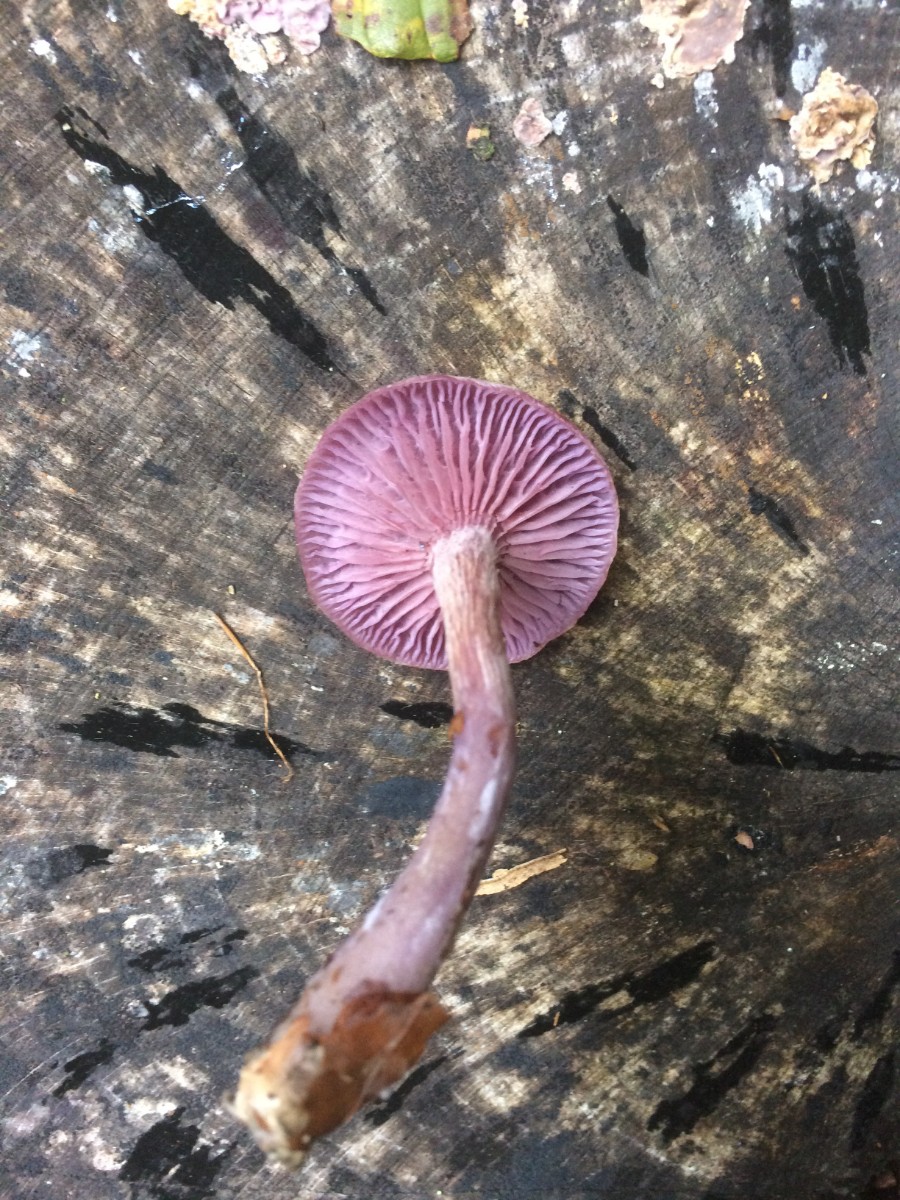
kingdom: Fungi
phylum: Basidiomycota
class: Agaricomycetes
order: Agaricales
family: Hydnangiaceae
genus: Laccaria
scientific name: Laccaria amethystina
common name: violet ametysthat
